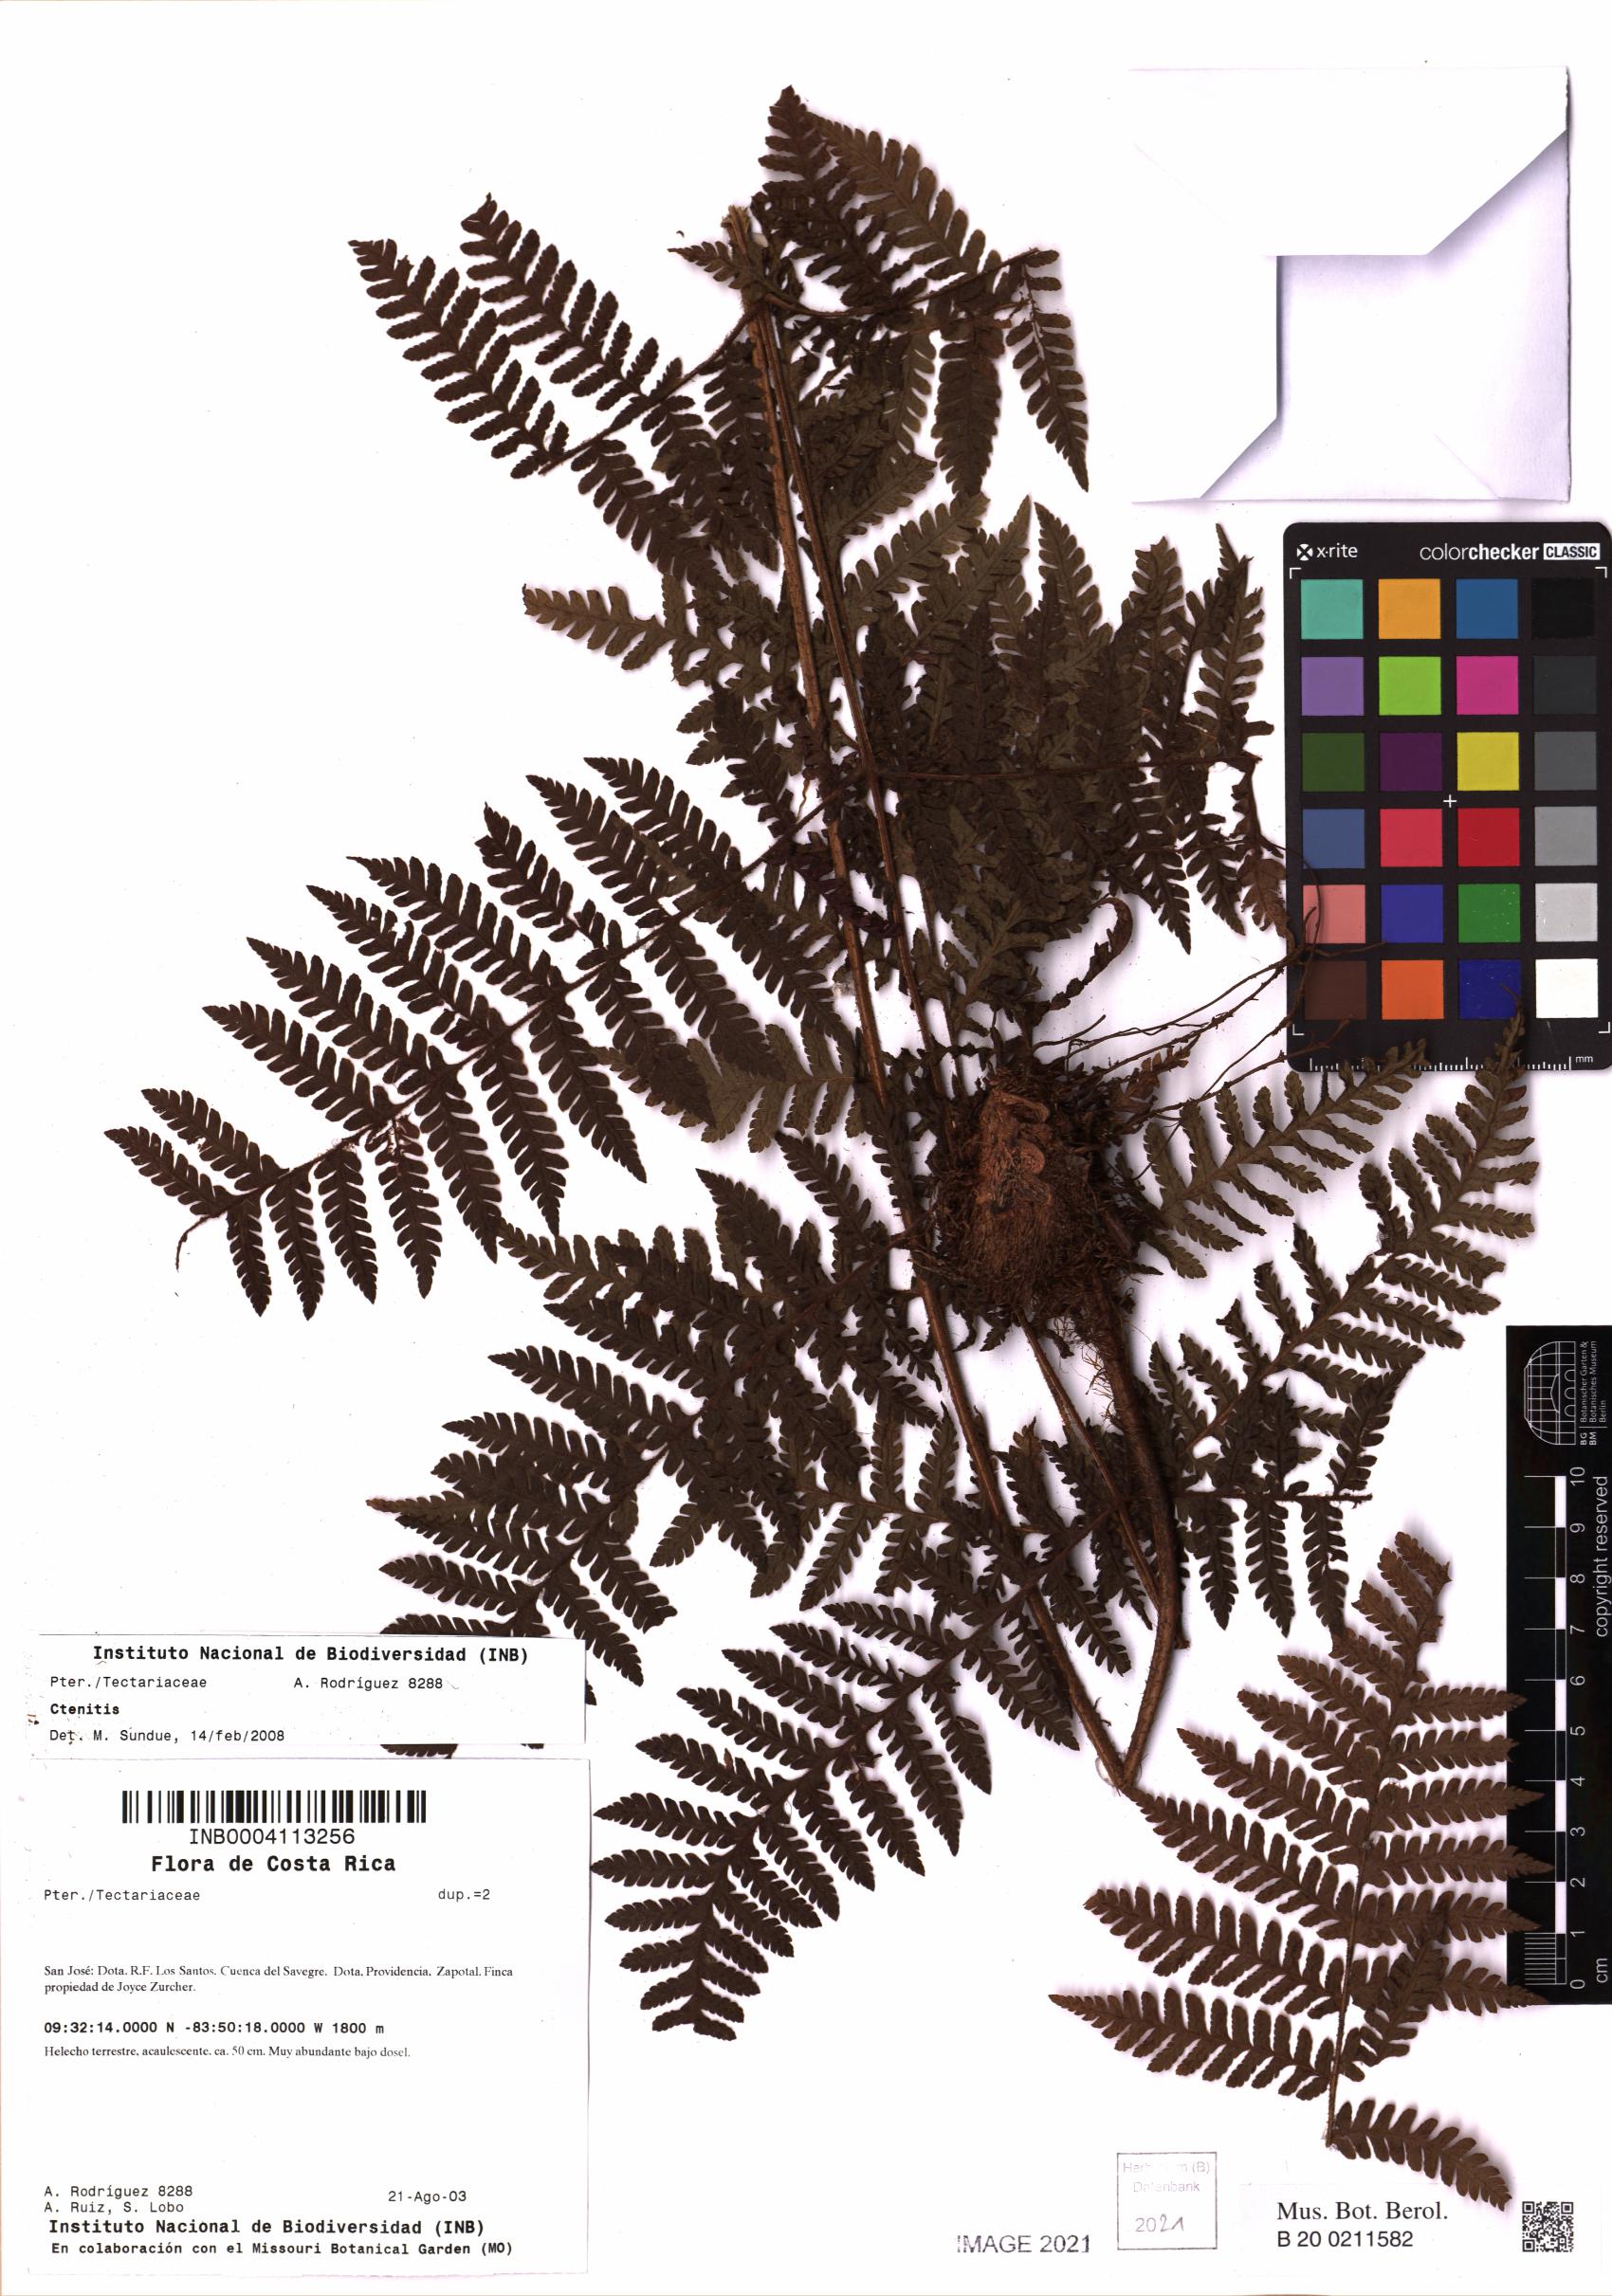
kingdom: Plantae
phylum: Tracheophyta
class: Polypodiopsida
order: Polypodiales
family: Dryopteridaceae
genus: Ctenitis
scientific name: Ctenitis
